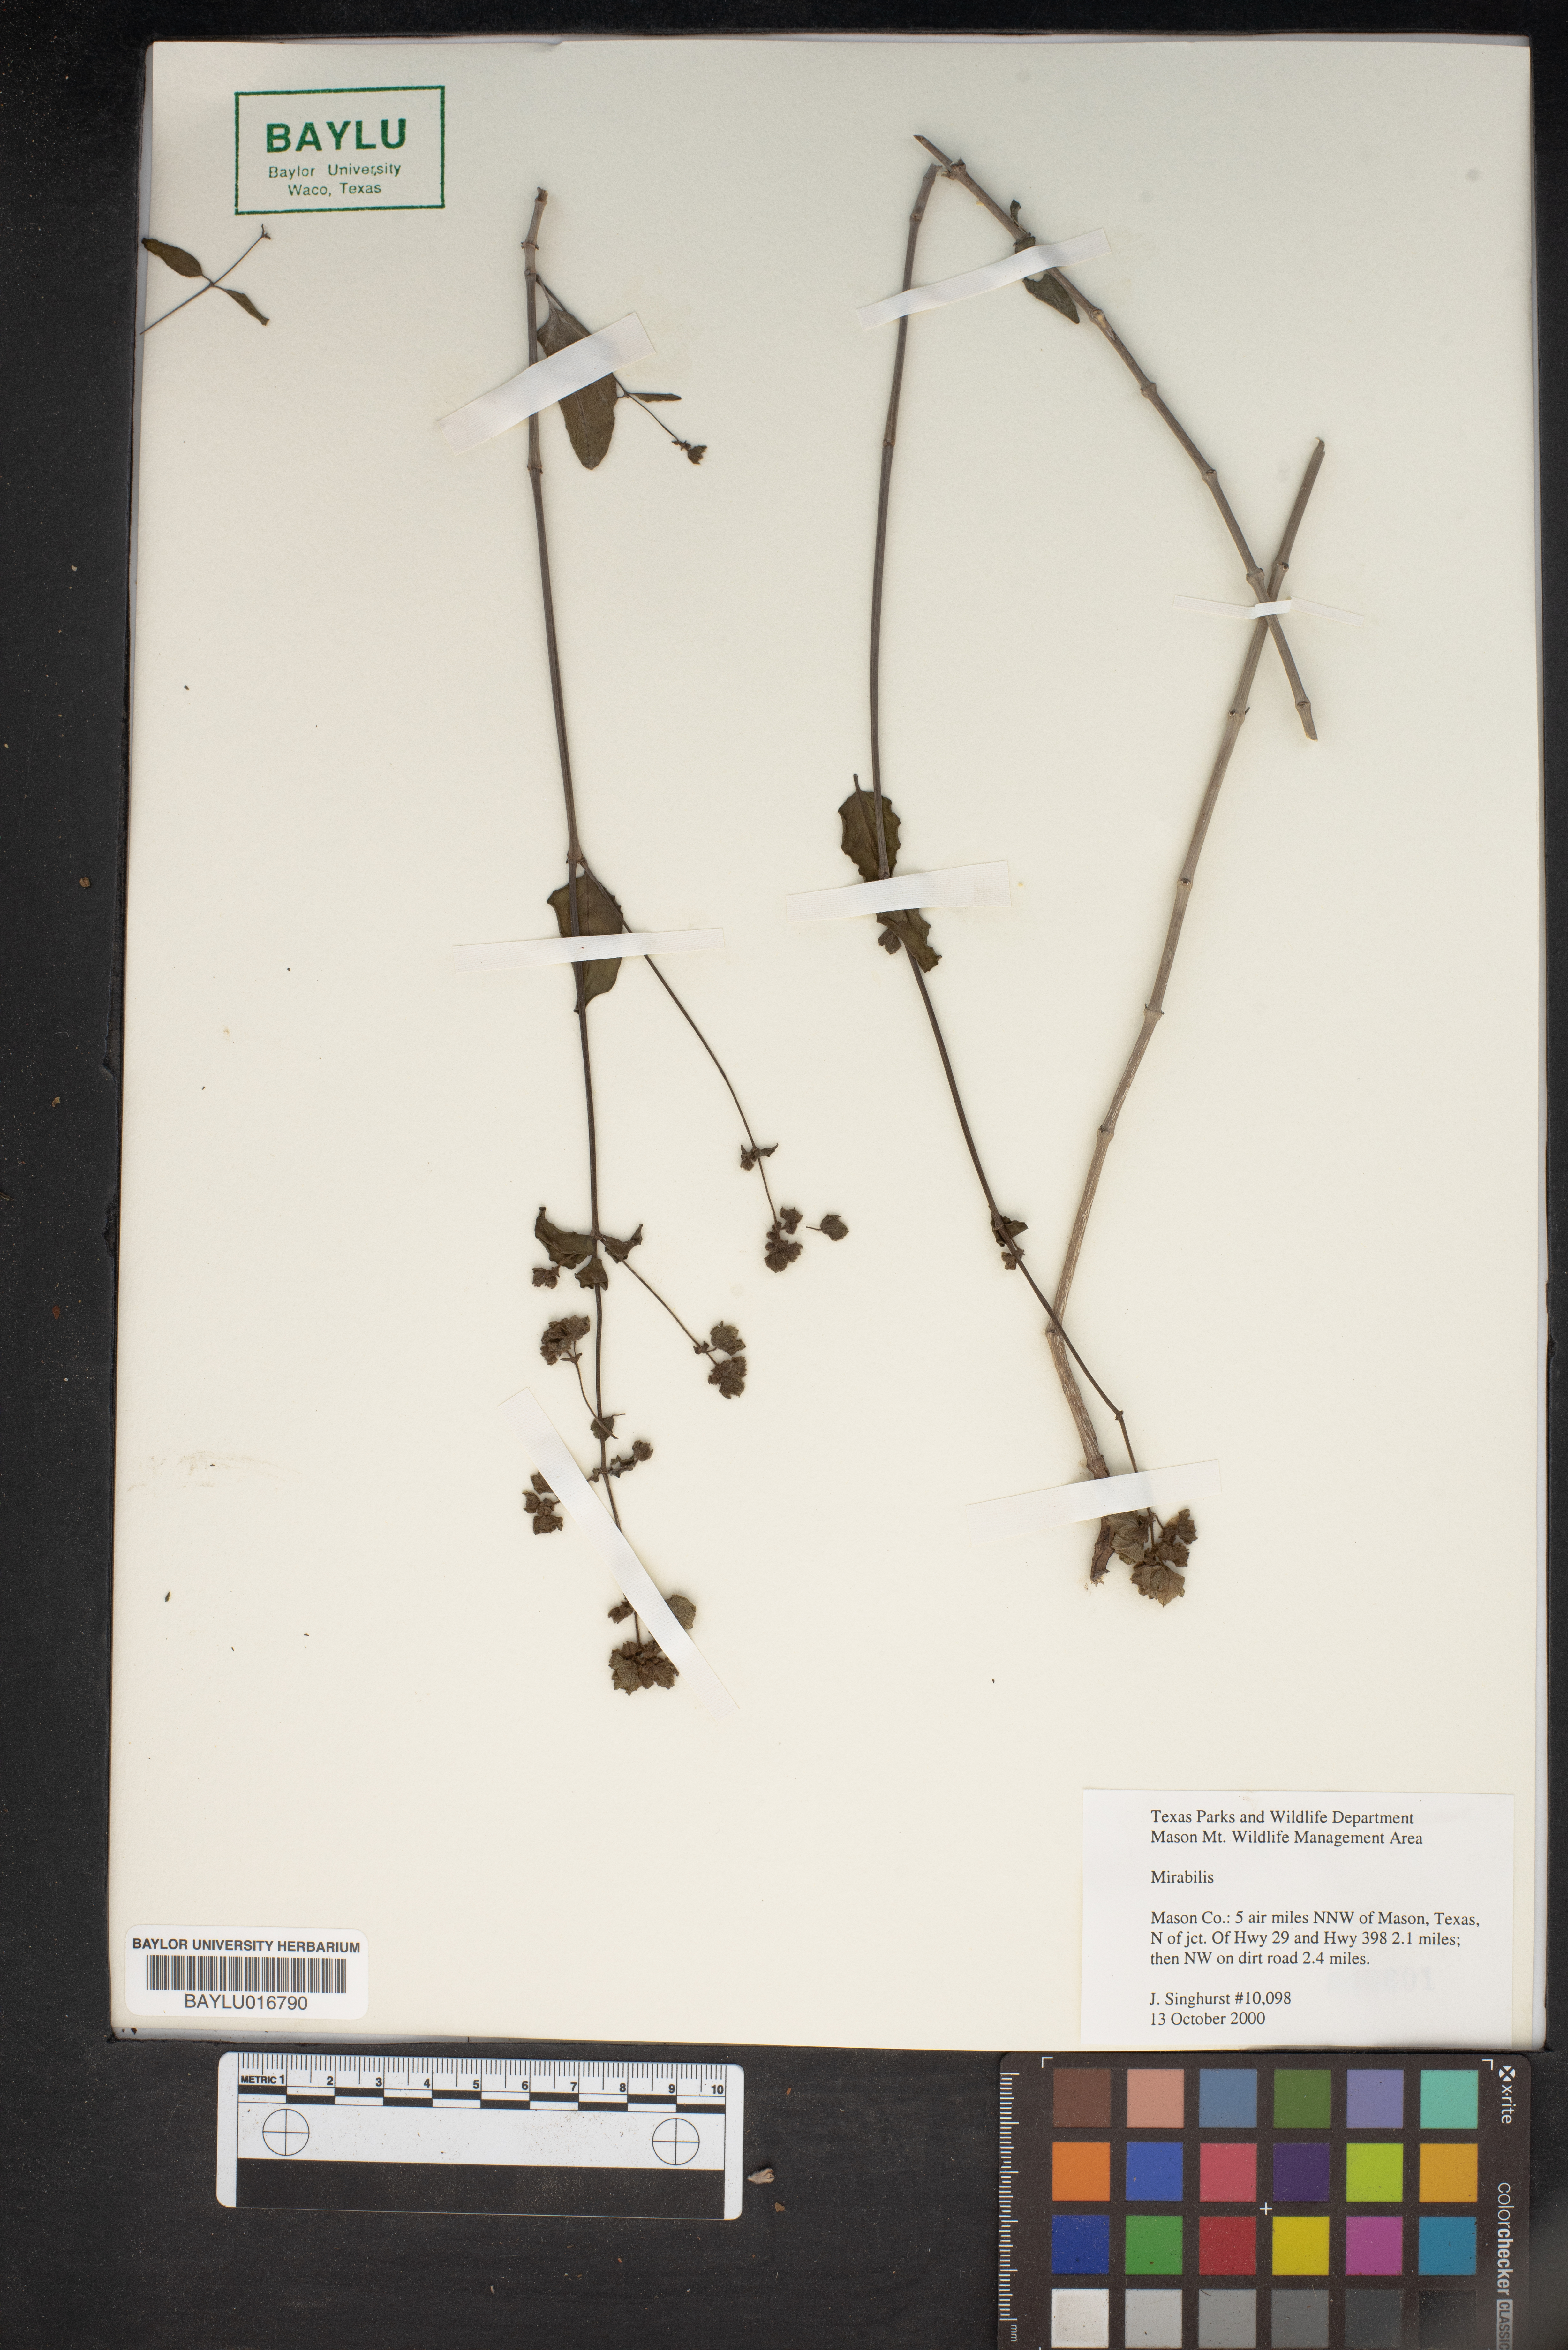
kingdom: Plantae
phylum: Tracheophyta
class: Magnoliopsida
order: Caryophyllales
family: Nyctaginaceae
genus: Mirabilis
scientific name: Mirabilis
